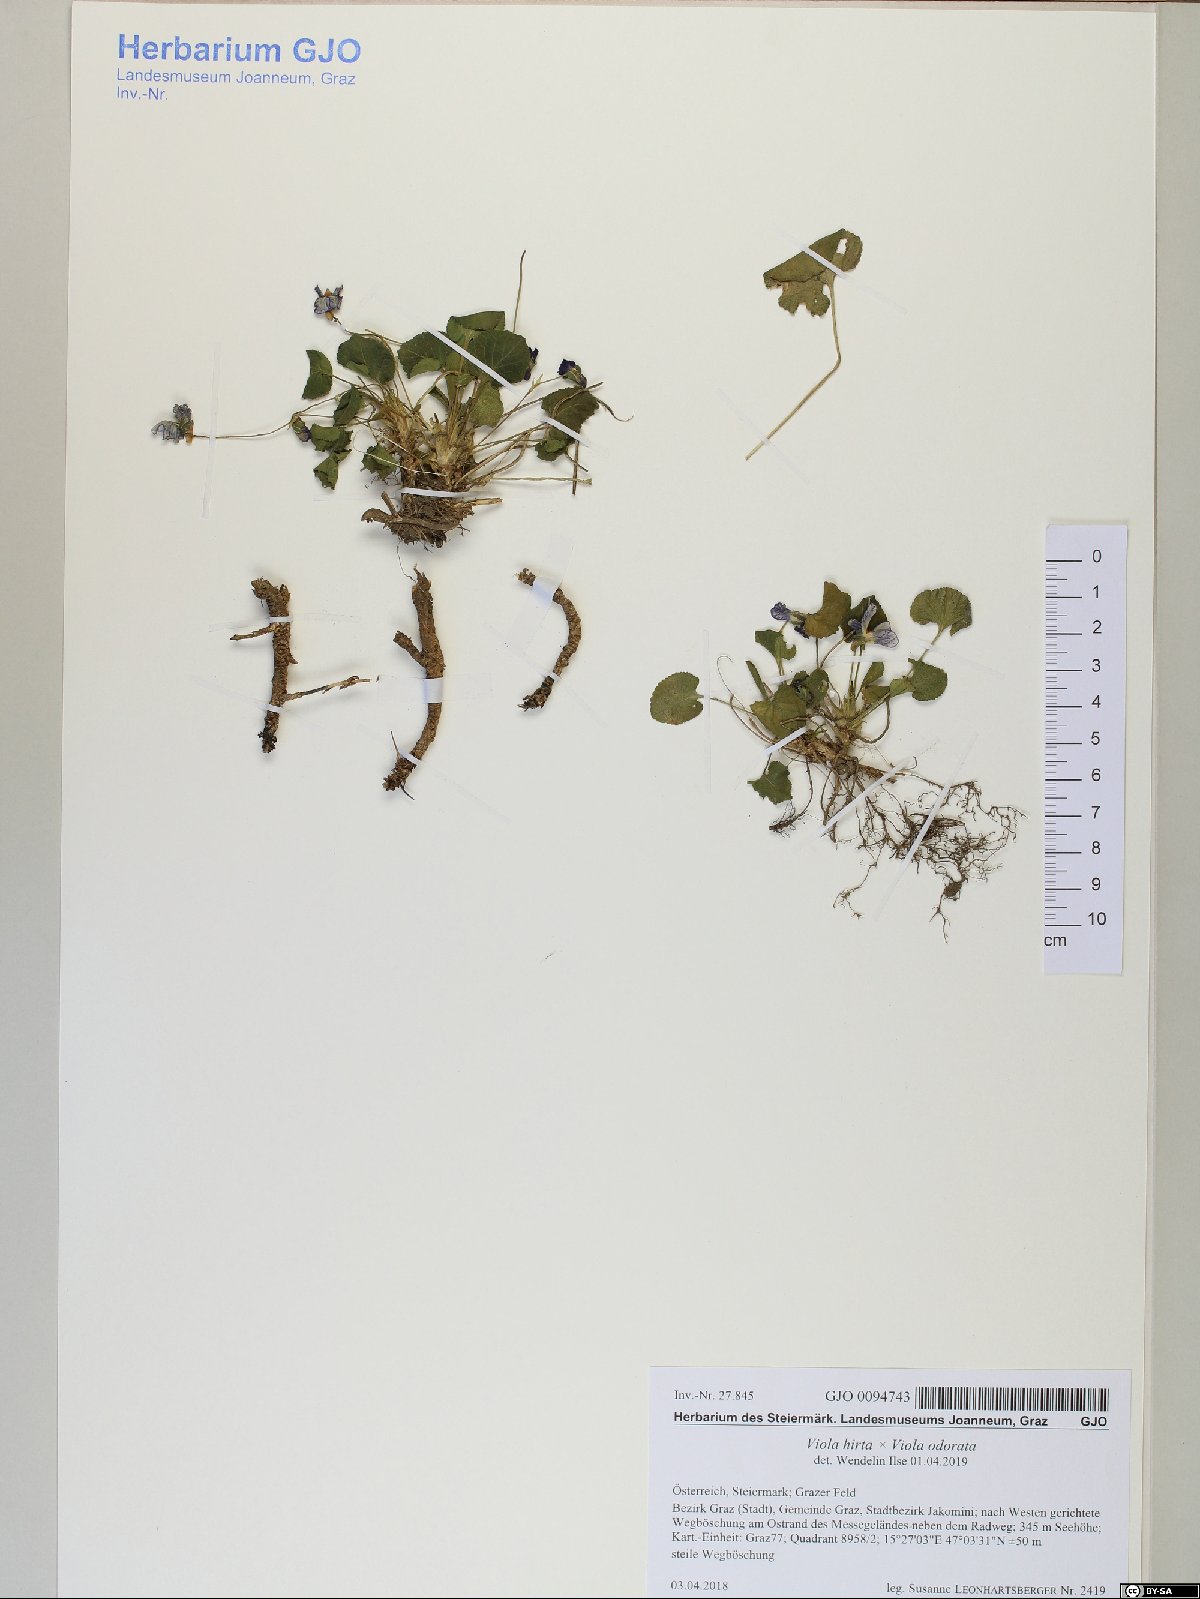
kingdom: Plantae
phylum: Tracheophyta
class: Magnoliopsida
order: Malpighiales
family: Violaceae
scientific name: Violaceae
